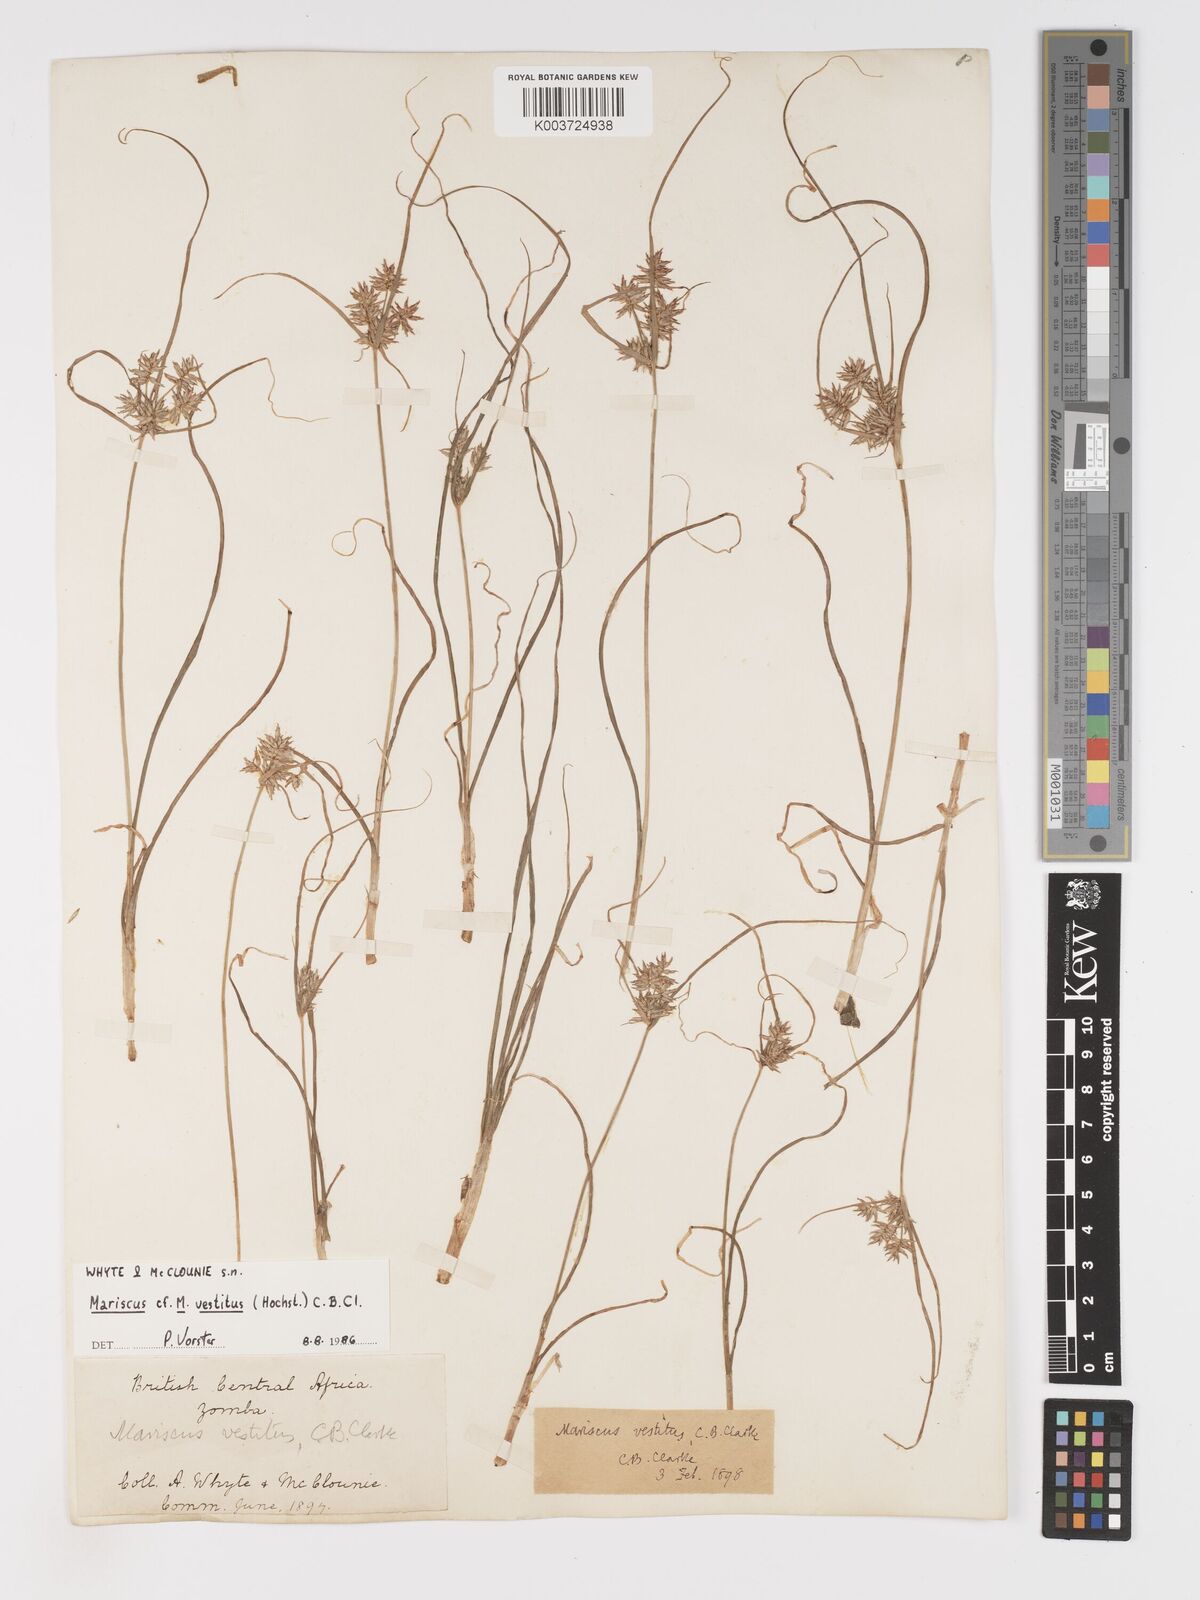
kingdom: Plantae
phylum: Tracheophyta
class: Liliopsida
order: Poales
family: Cyperaceae
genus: Cyperus
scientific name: Cyperus vestitus
